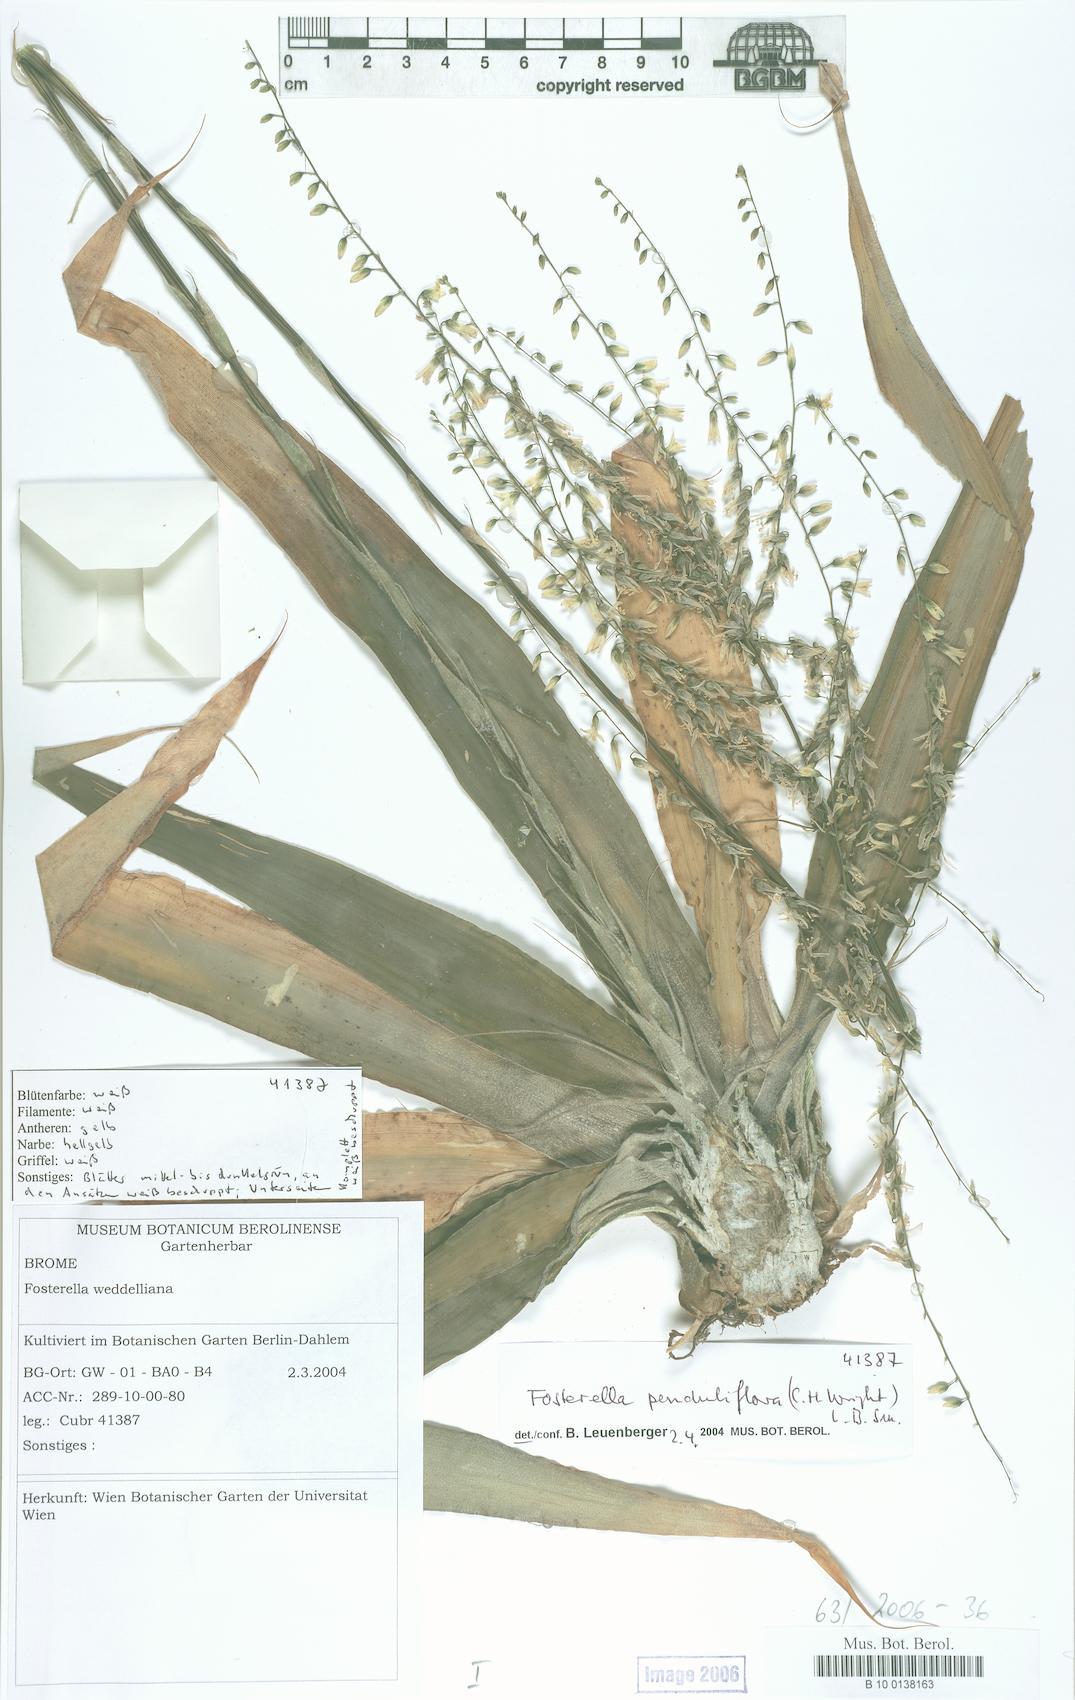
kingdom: Plantae
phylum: Tracheophyta
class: Liliopsida
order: Poales
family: Bromeliaceae
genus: Fosterella
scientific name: Fosterella penduliflora
